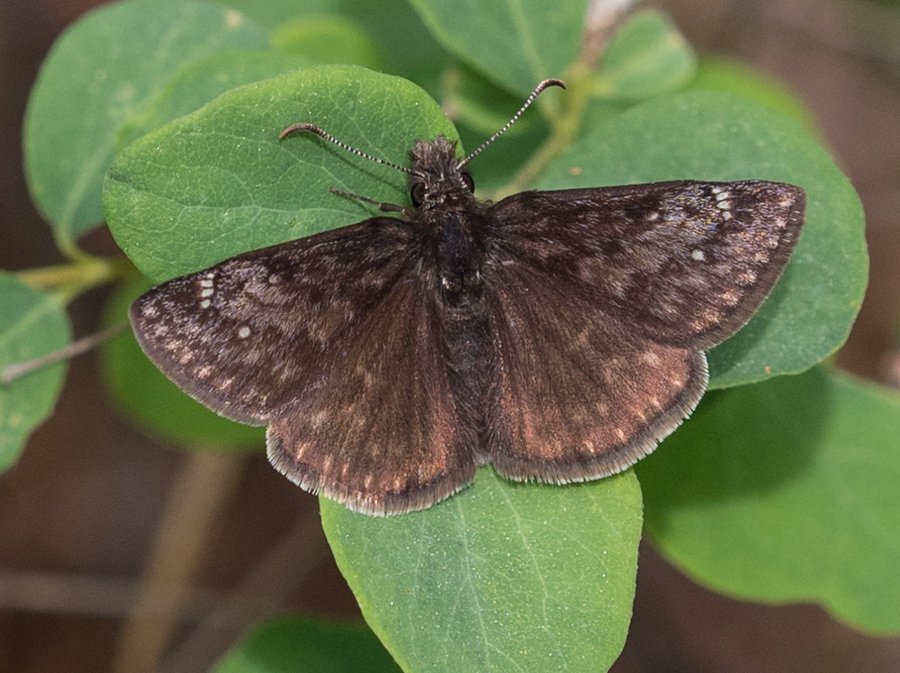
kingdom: Animalia
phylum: Arthropoda
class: Insecta
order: Lepidoptera
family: Hesperiidae
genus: Gesta
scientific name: Gesta
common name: Persius Duskywing
